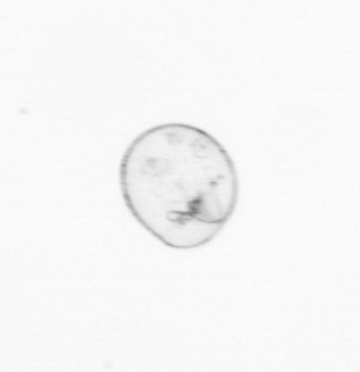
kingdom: Chromista
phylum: Myzozoa
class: Dinophyceae
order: Noctilucales
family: Noctilucaceae
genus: Noctiluca
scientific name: Noctiluca scintillans
